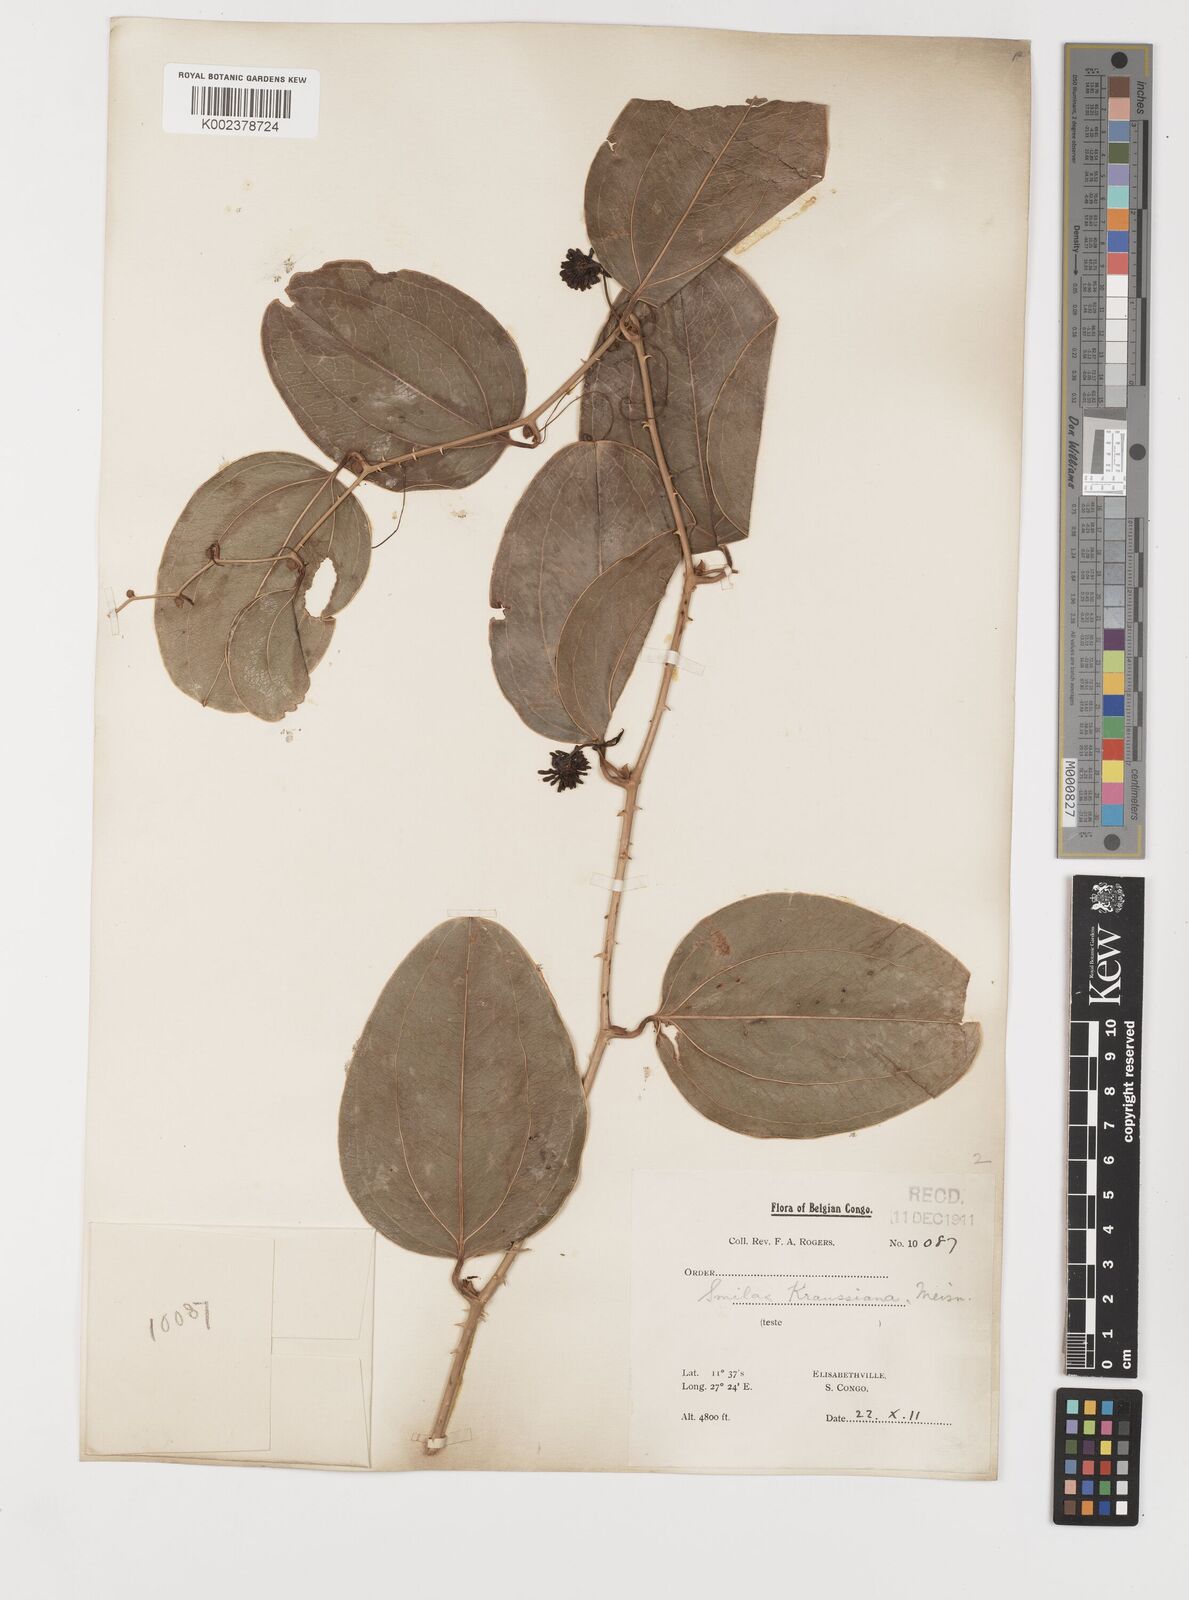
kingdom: Plantae
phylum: Tracheophyta
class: Liliopsida
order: Liliales
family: Smilacaceae
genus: Smilax
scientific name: Smilax anceps
